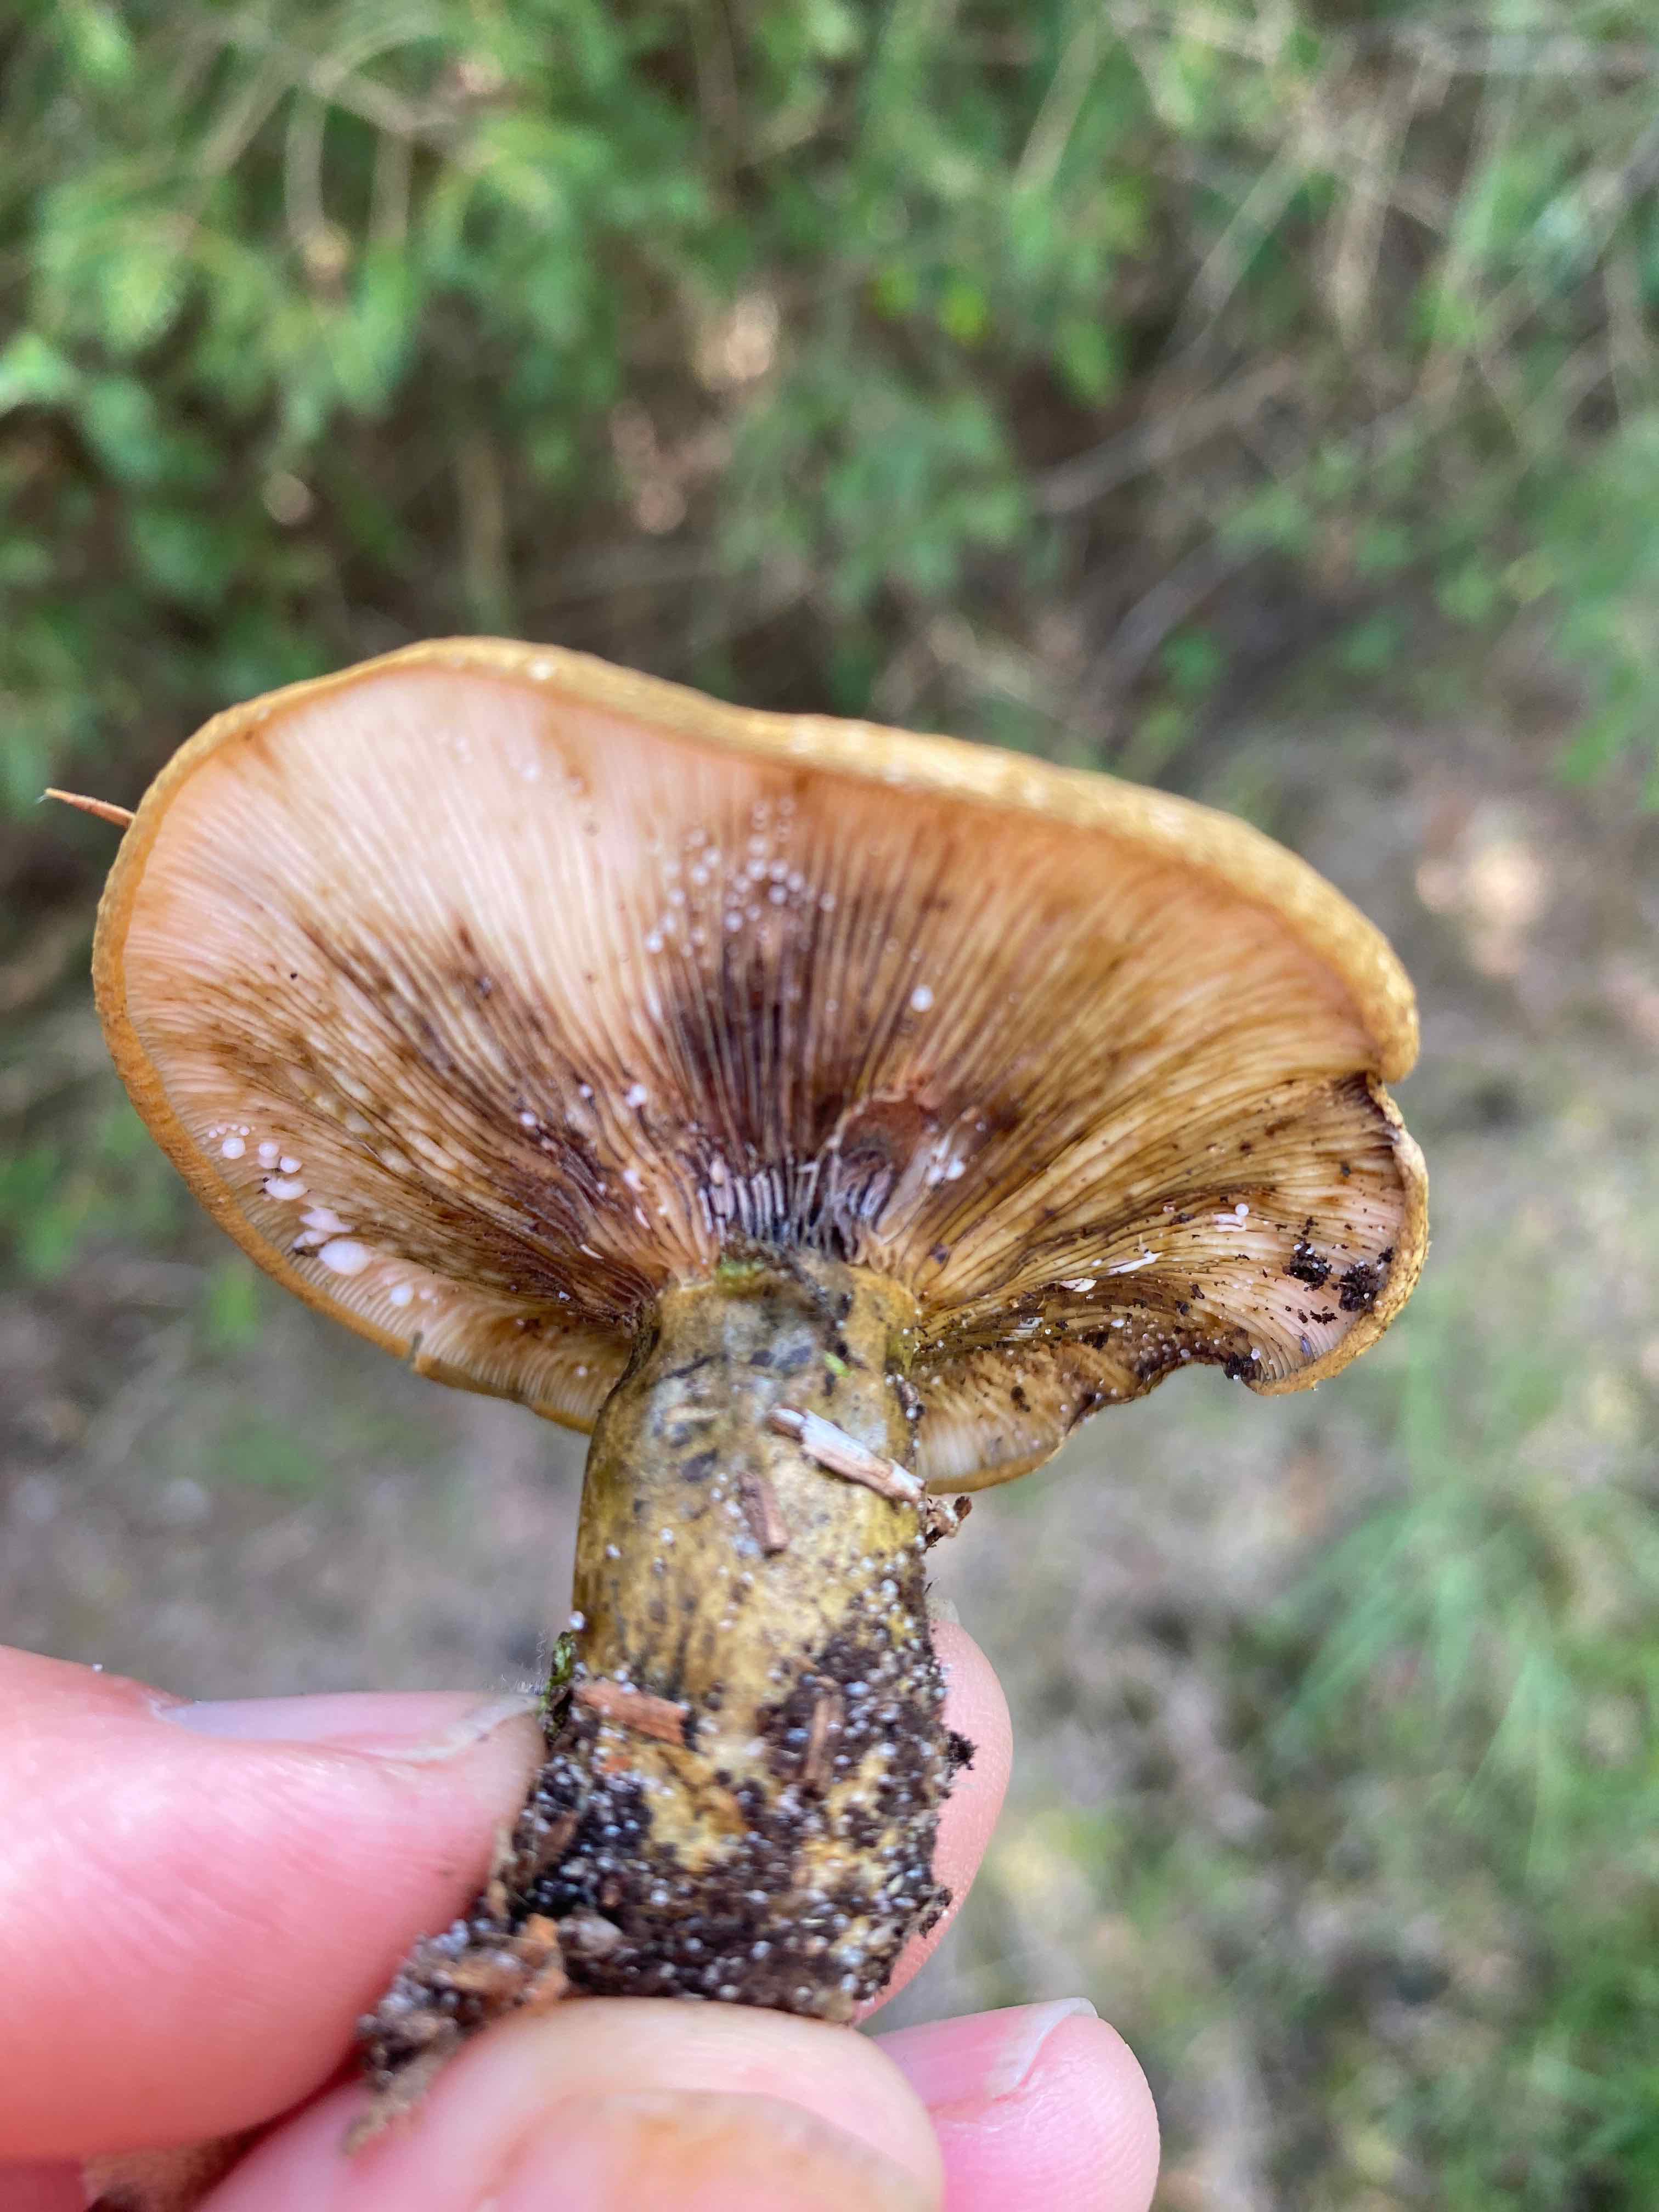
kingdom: Fungi
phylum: Basidiomycota
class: Agaricomycetes
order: Russulales
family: Russulaceae
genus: Lactarius
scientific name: Lactarius necator
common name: manddraber-mælkehat
